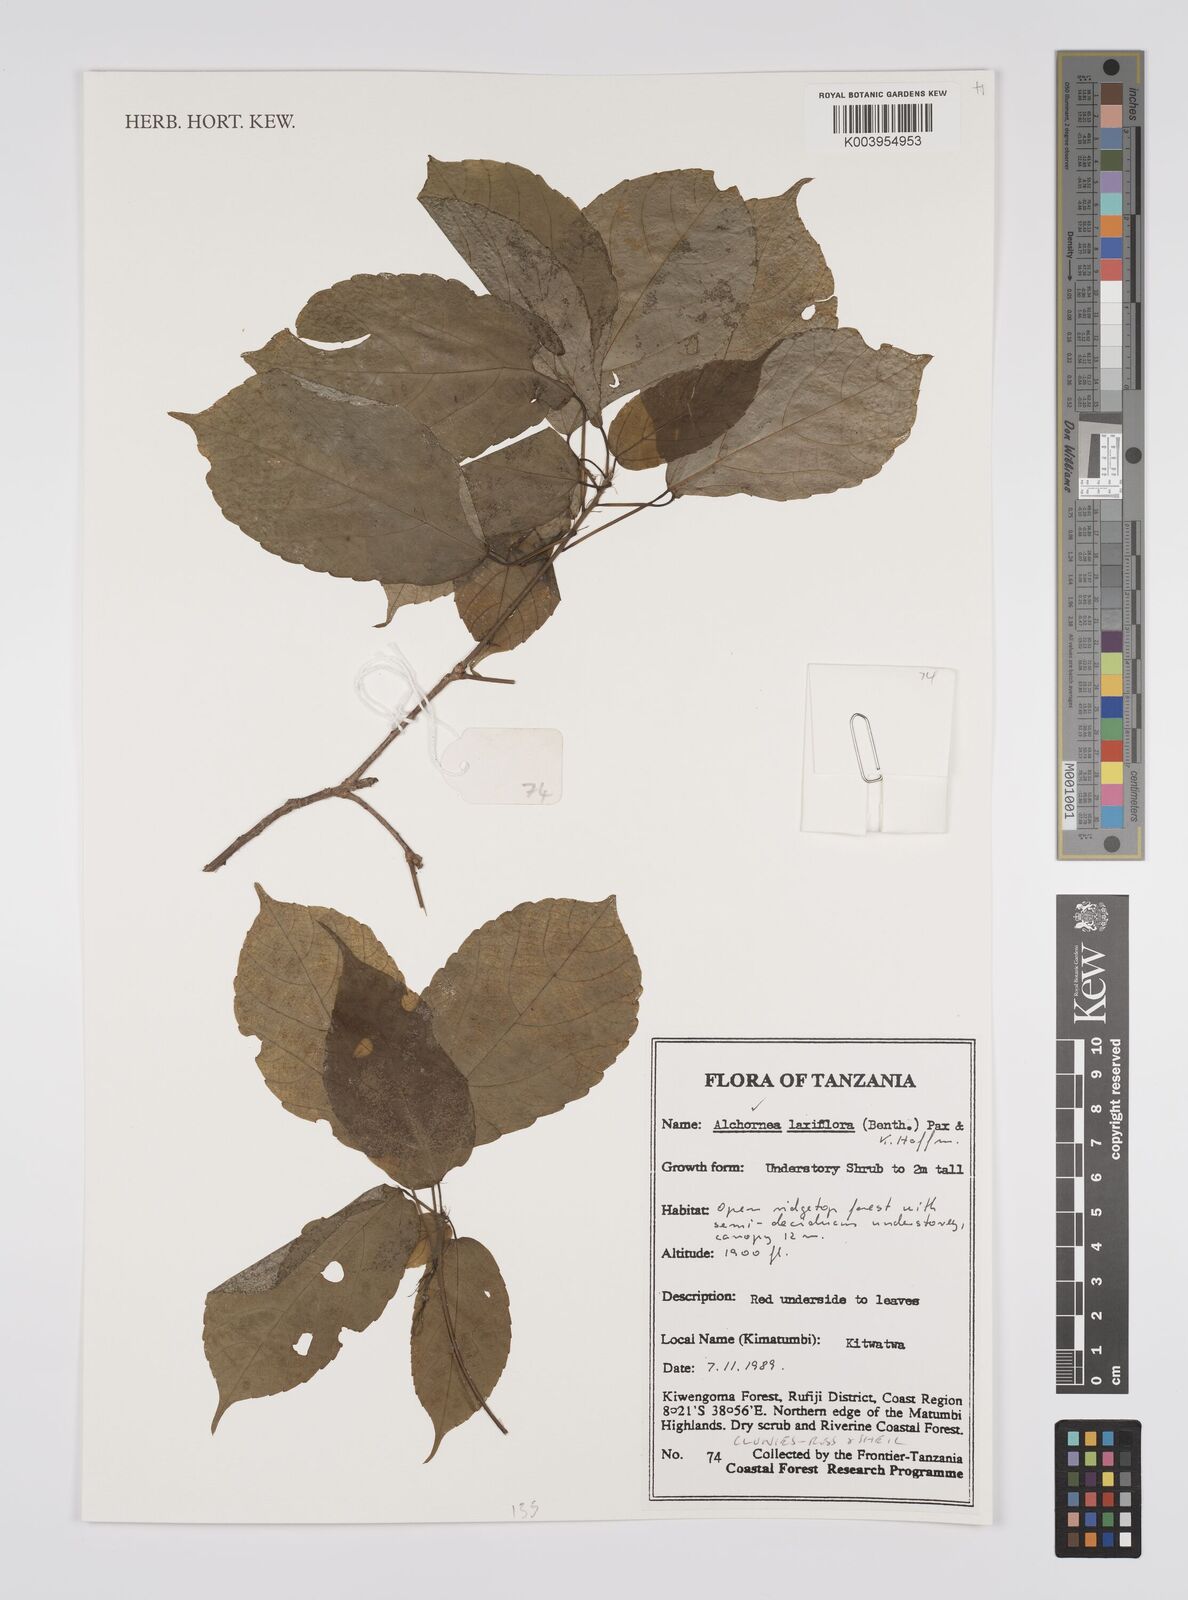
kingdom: Plantae
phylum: Tracheophyta
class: Magnoliopsida
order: Malpighiales
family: Euphorbiaceae
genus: Alchornea
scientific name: Alchornea laxiflora
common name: Lowveld bead-string
